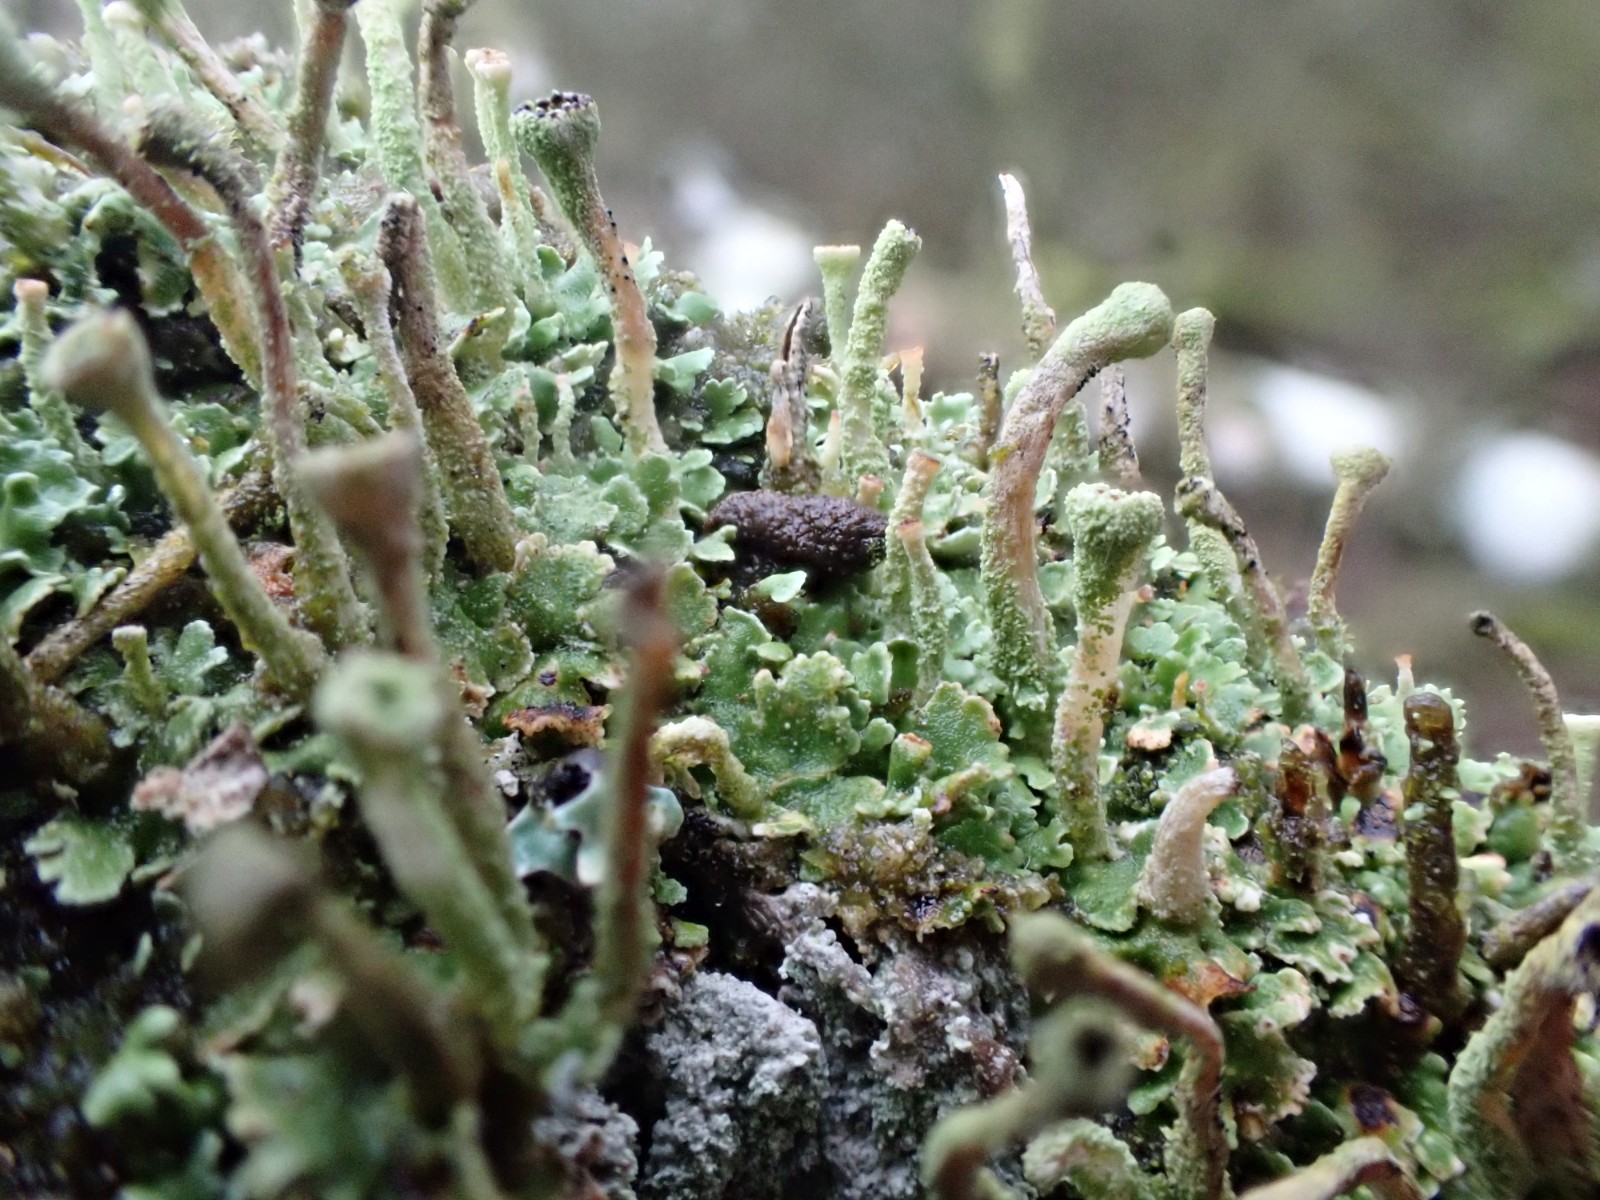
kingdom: Fungi
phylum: Ascomycota
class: Lecanoromycetes
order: Lecanorales
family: Cladoniaceae
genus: Cladonia
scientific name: Cladonia
